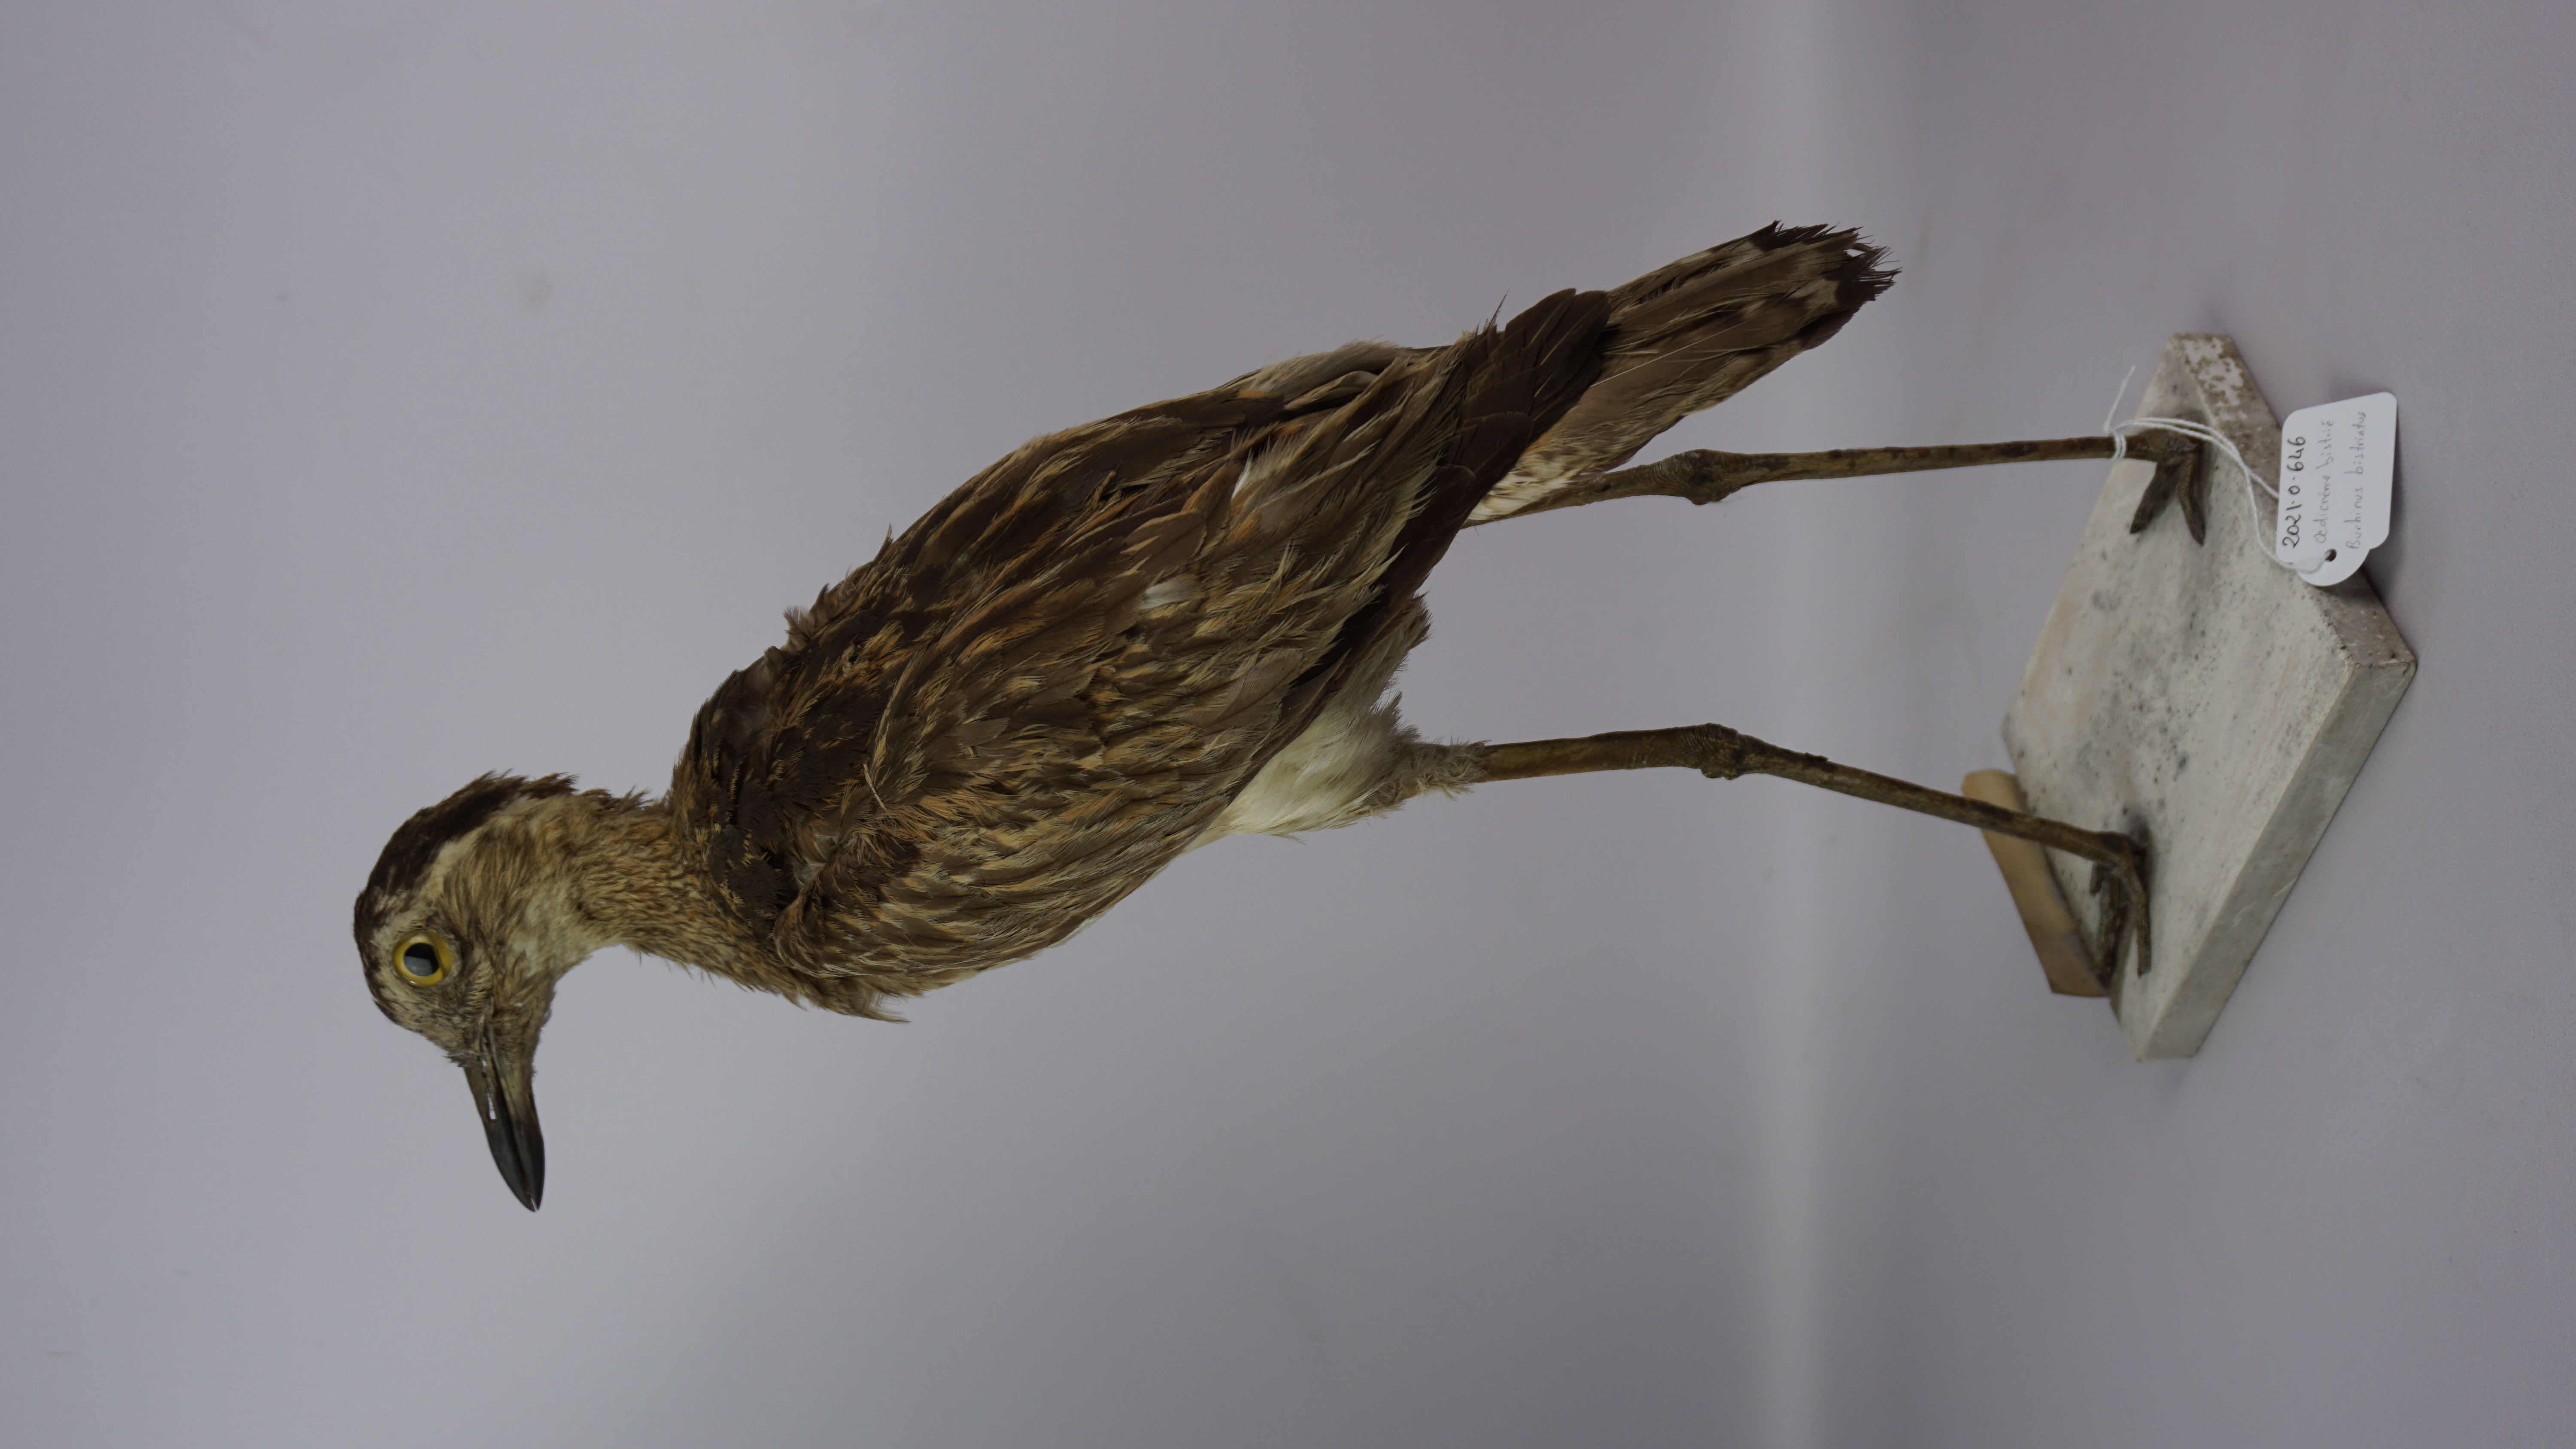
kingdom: Animalia
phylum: Chordata
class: Aves
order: Charadriiformes
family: Burhinidae
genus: Burhinus
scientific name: Burhinus bistriatus
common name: Double-striped thick-knee
